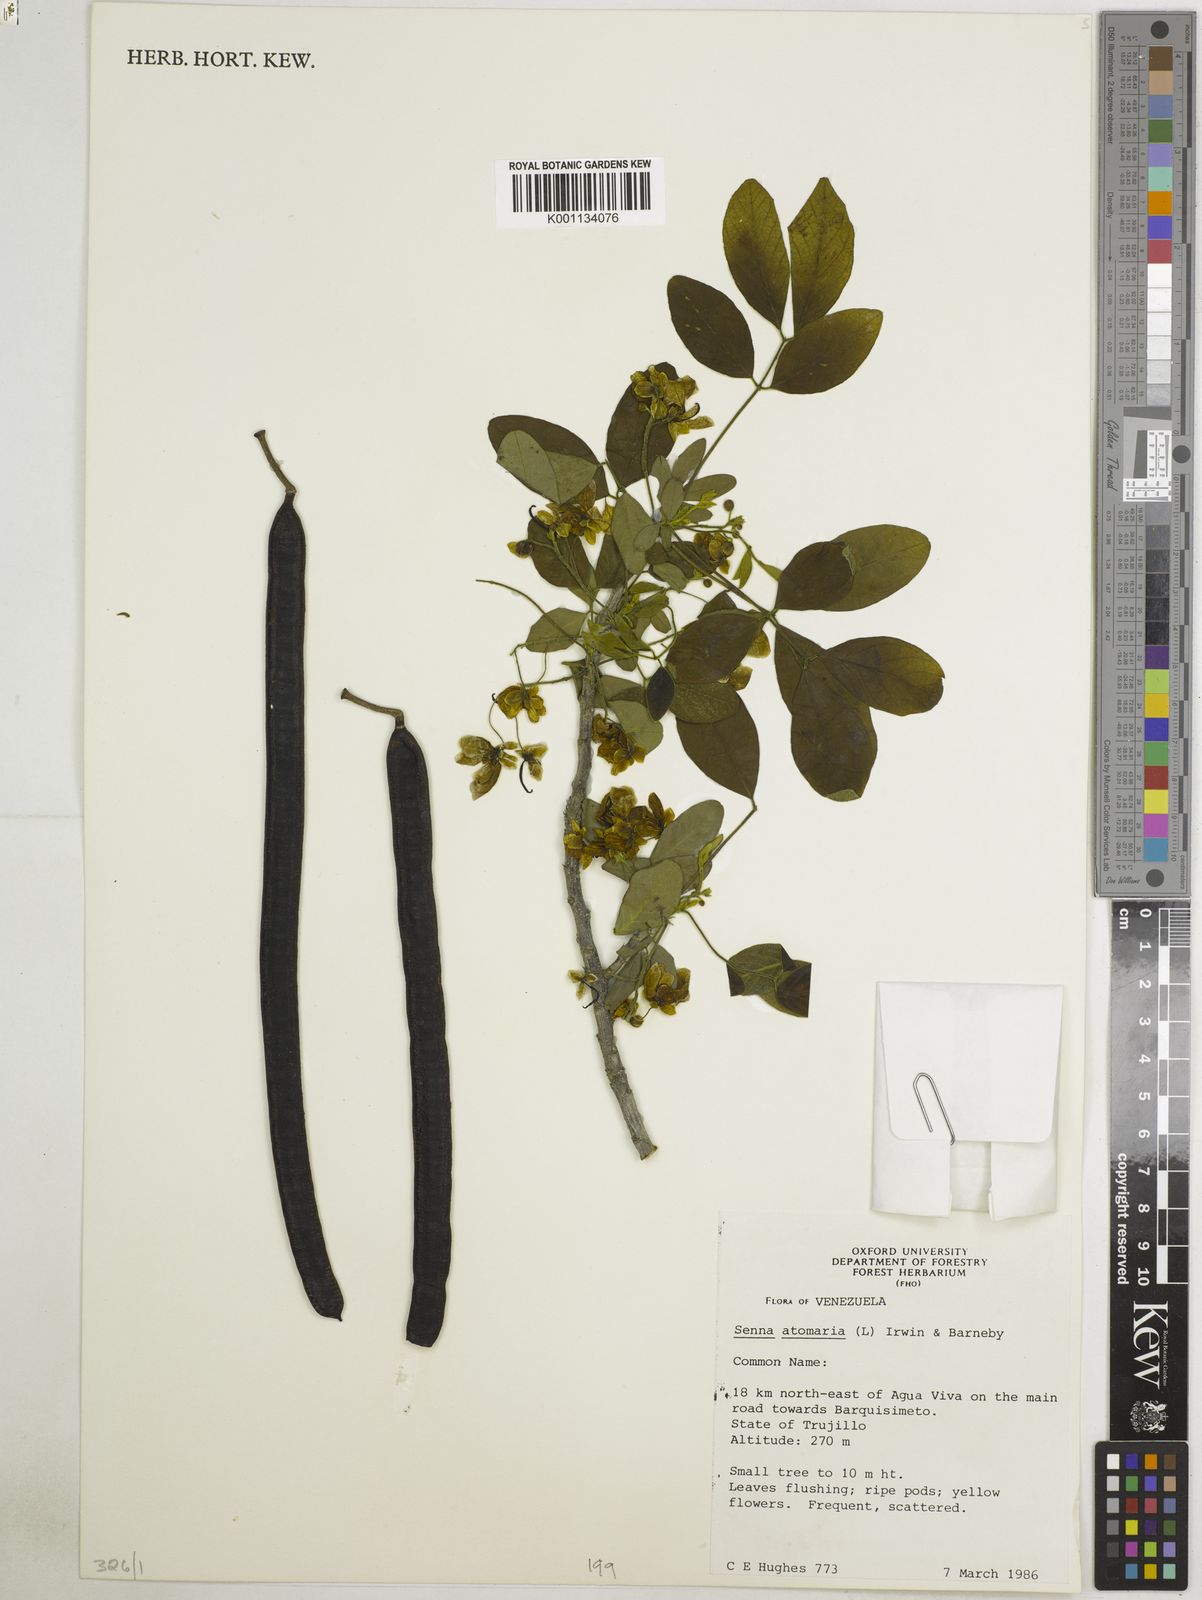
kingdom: Plantae
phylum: Tracheophyta
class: Magnoliopsida
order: Fabales
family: Fabaceae
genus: Senna
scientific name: Senna atomaria
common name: Flor de san jose
